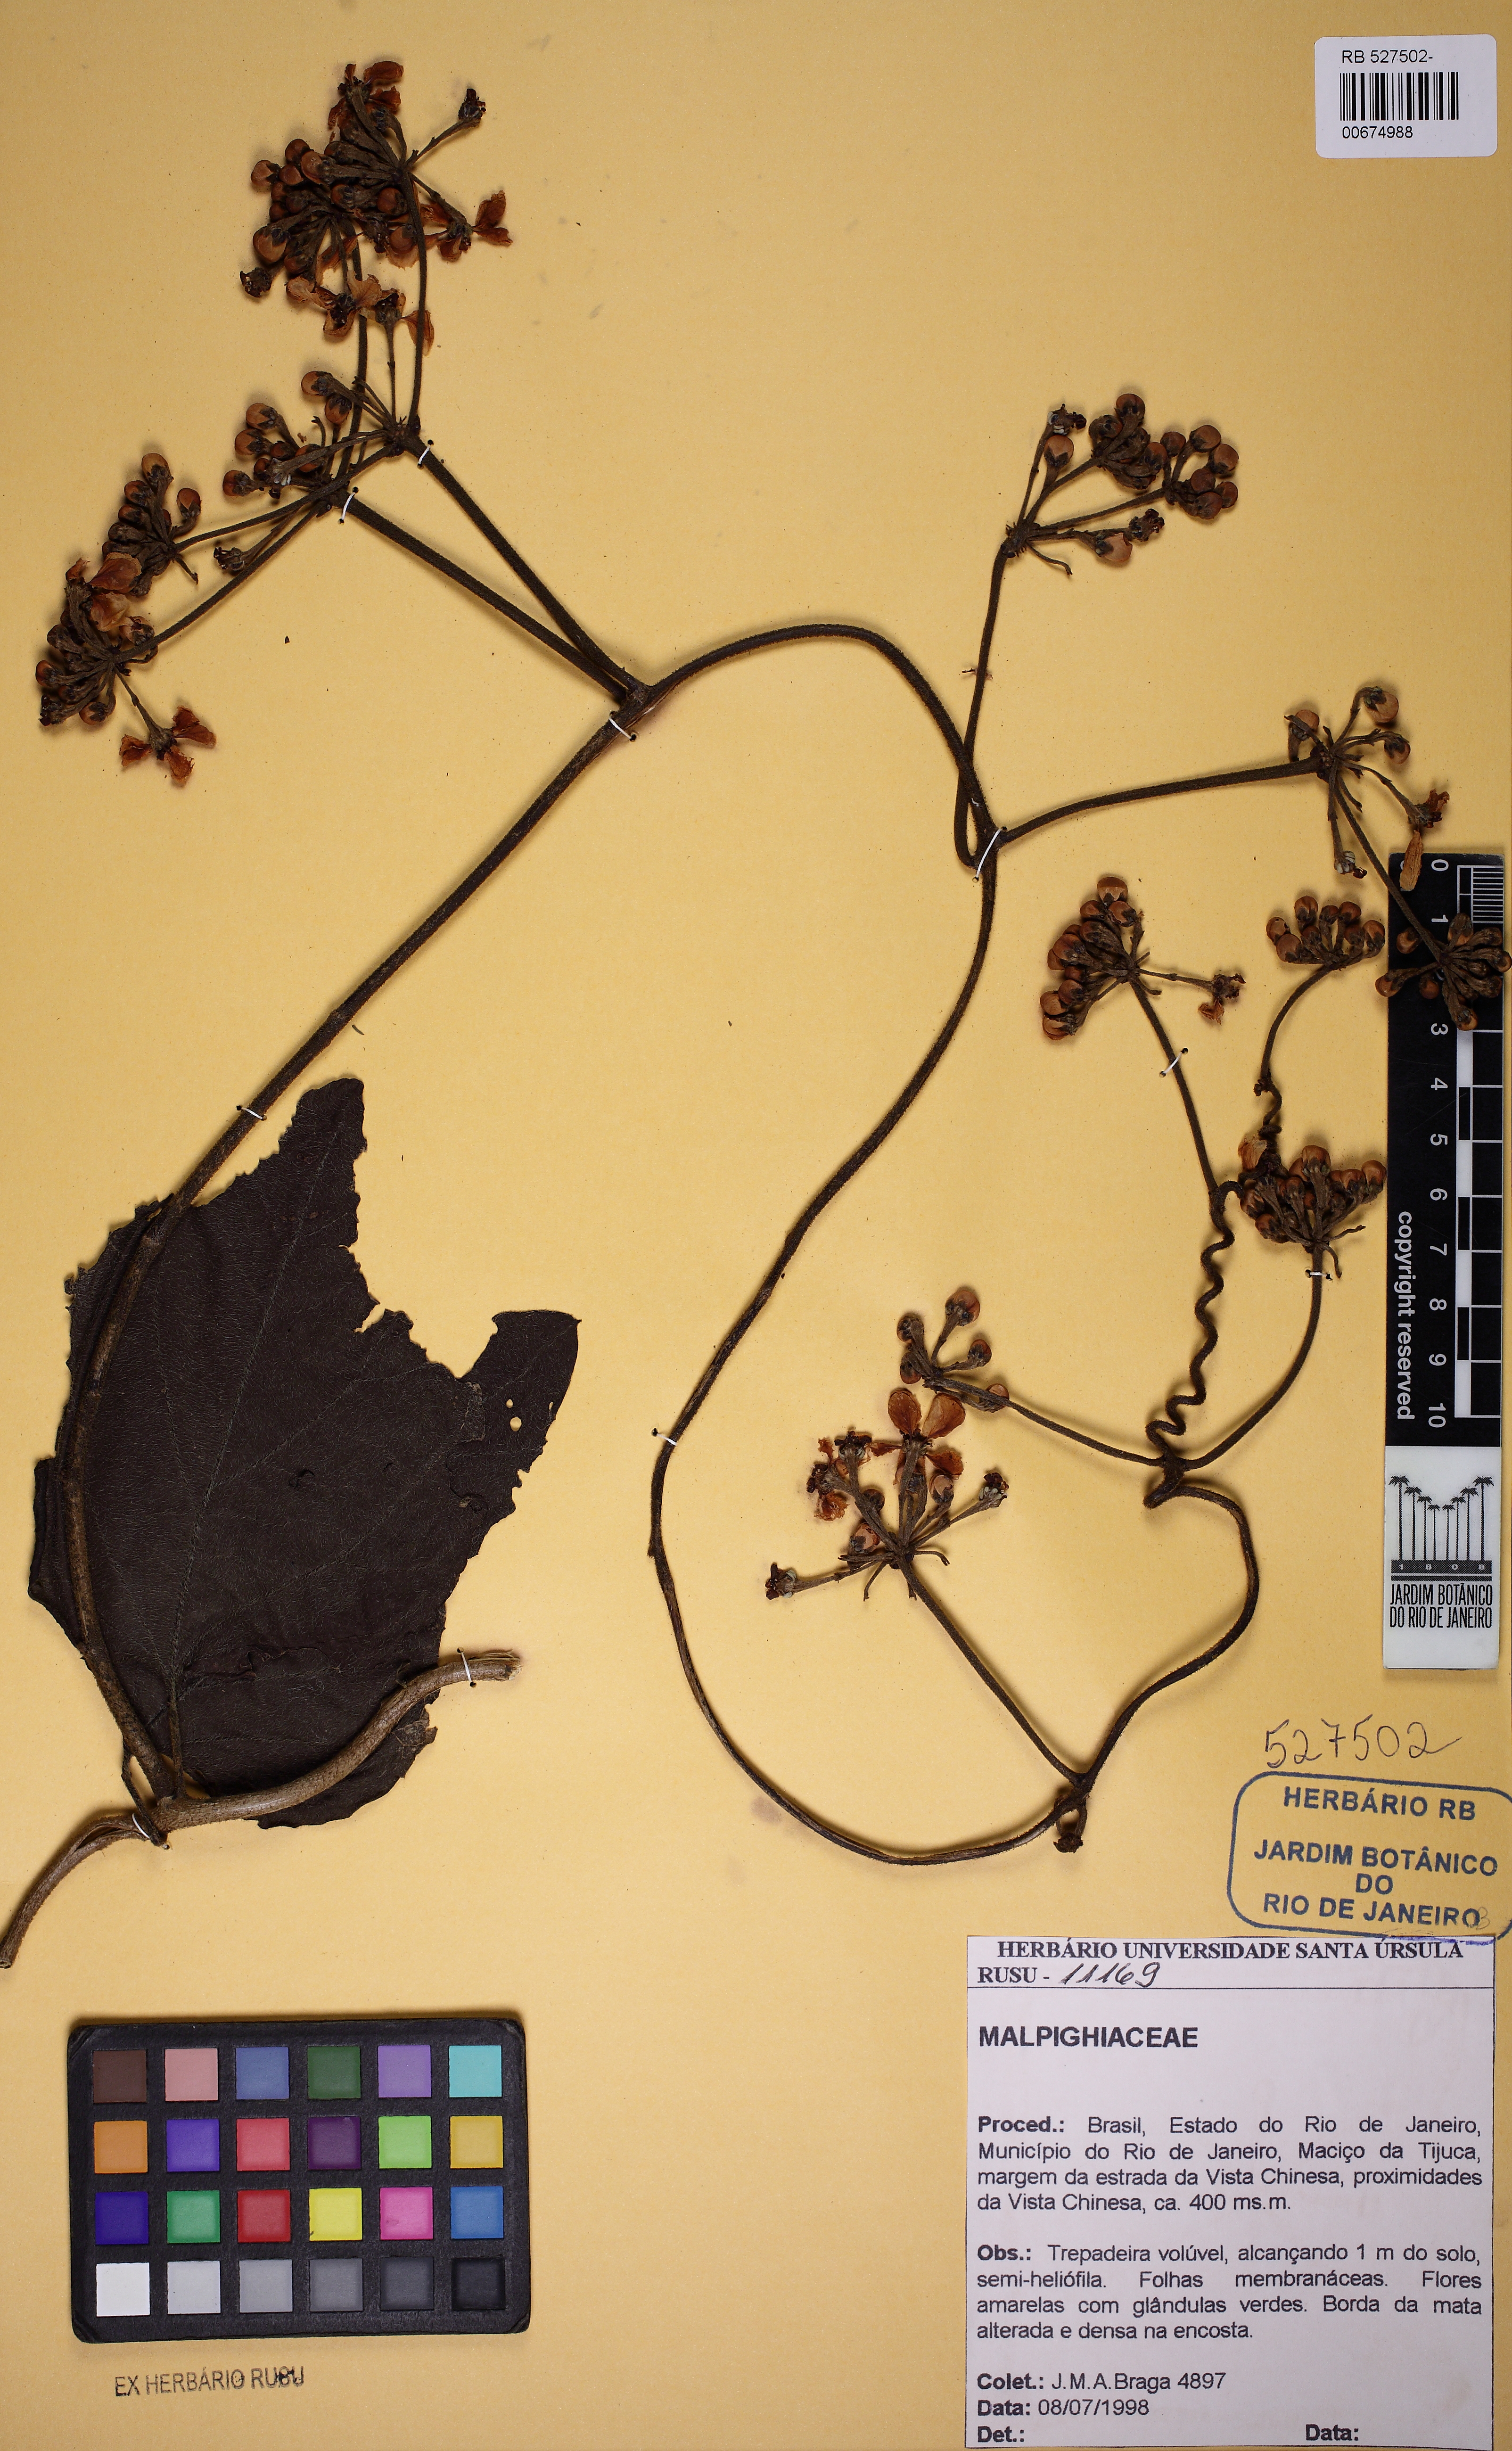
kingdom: Plantae
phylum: Tracheophyta
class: Magnoliopsida
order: Malpighiales
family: Malpighiaceae
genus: Stigmaphyllon
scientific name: Stigmaphyllon gayanum
